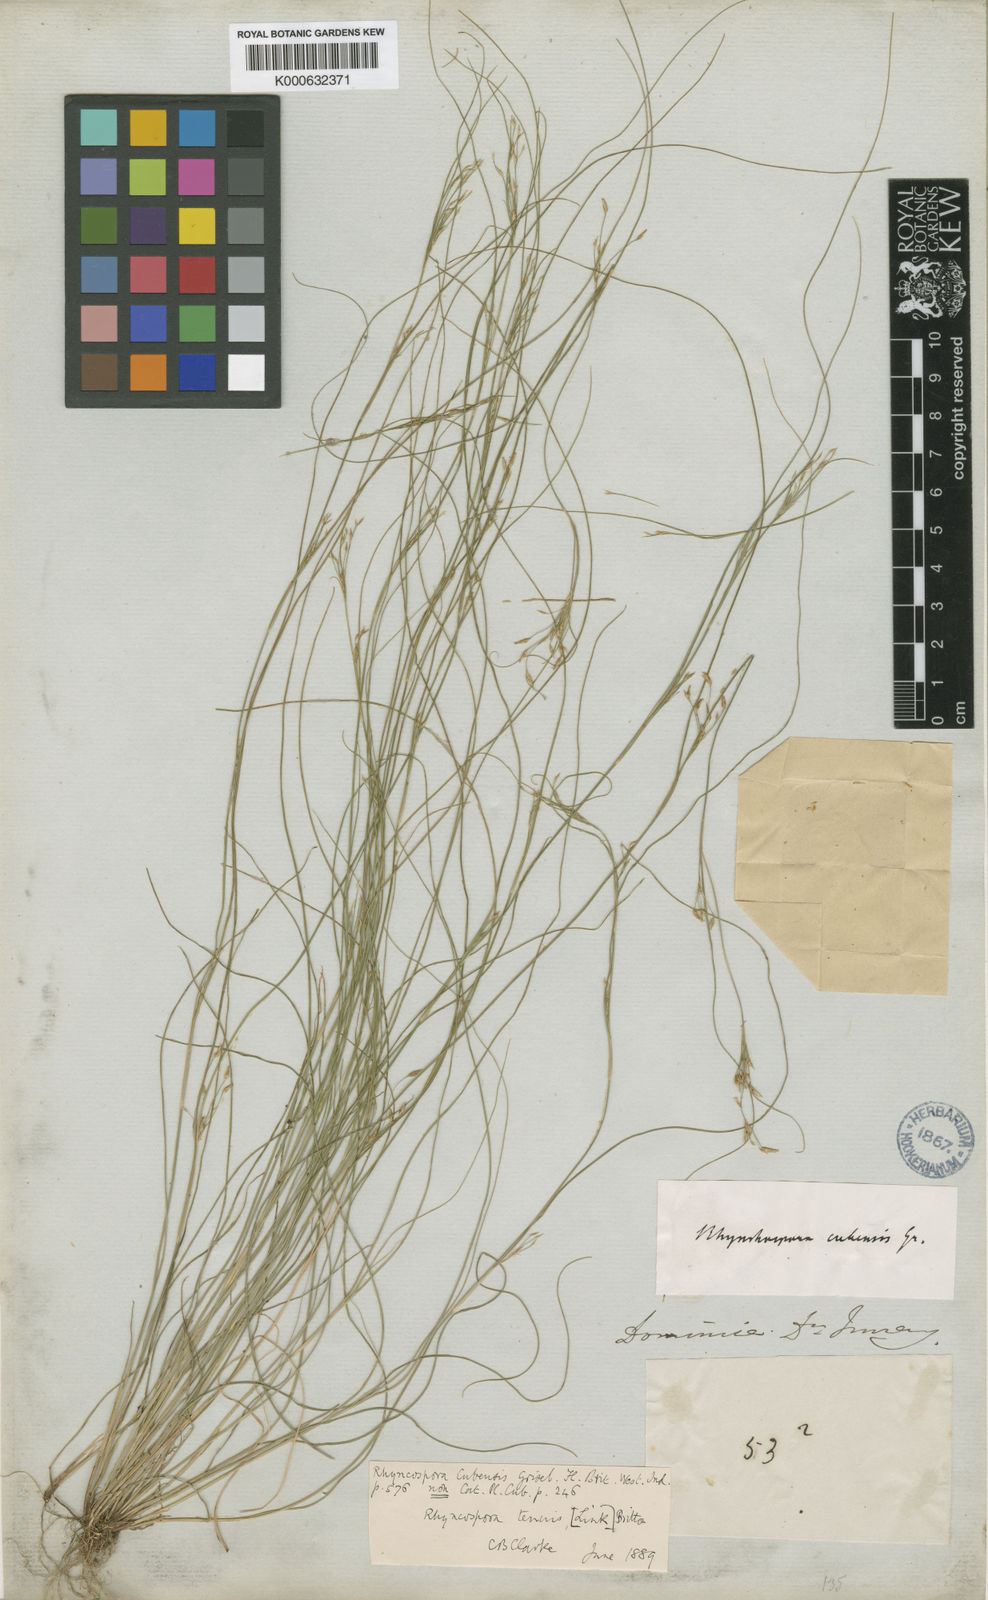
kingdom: Plantae
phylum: Tracheophyta
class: Liliopsida
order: Poales
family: Cyperaceae
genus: Rhynchospora
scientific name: Rhynchospora
